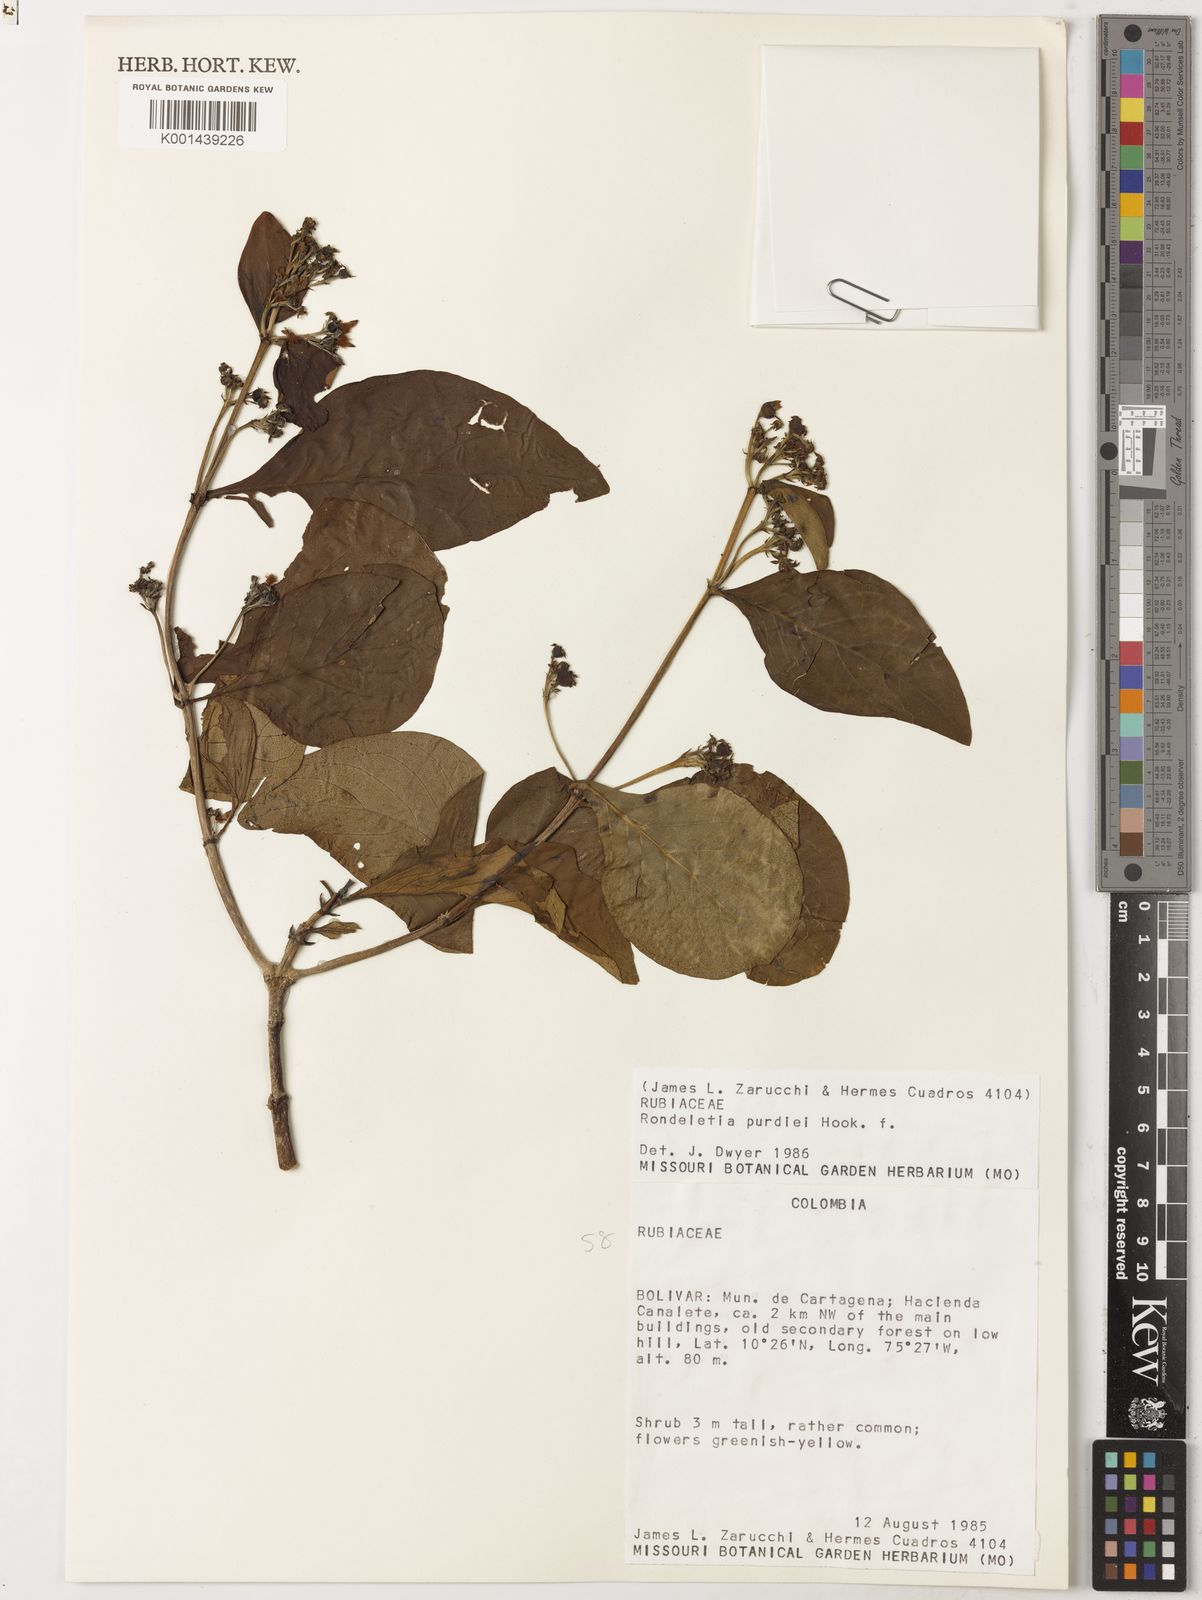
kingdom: Plantae
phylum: Tracheophyta
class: Magnoliopsida
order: Gentianales
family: Rubiaceae
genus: Rondeletia
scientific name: Rondeletia purdiei
